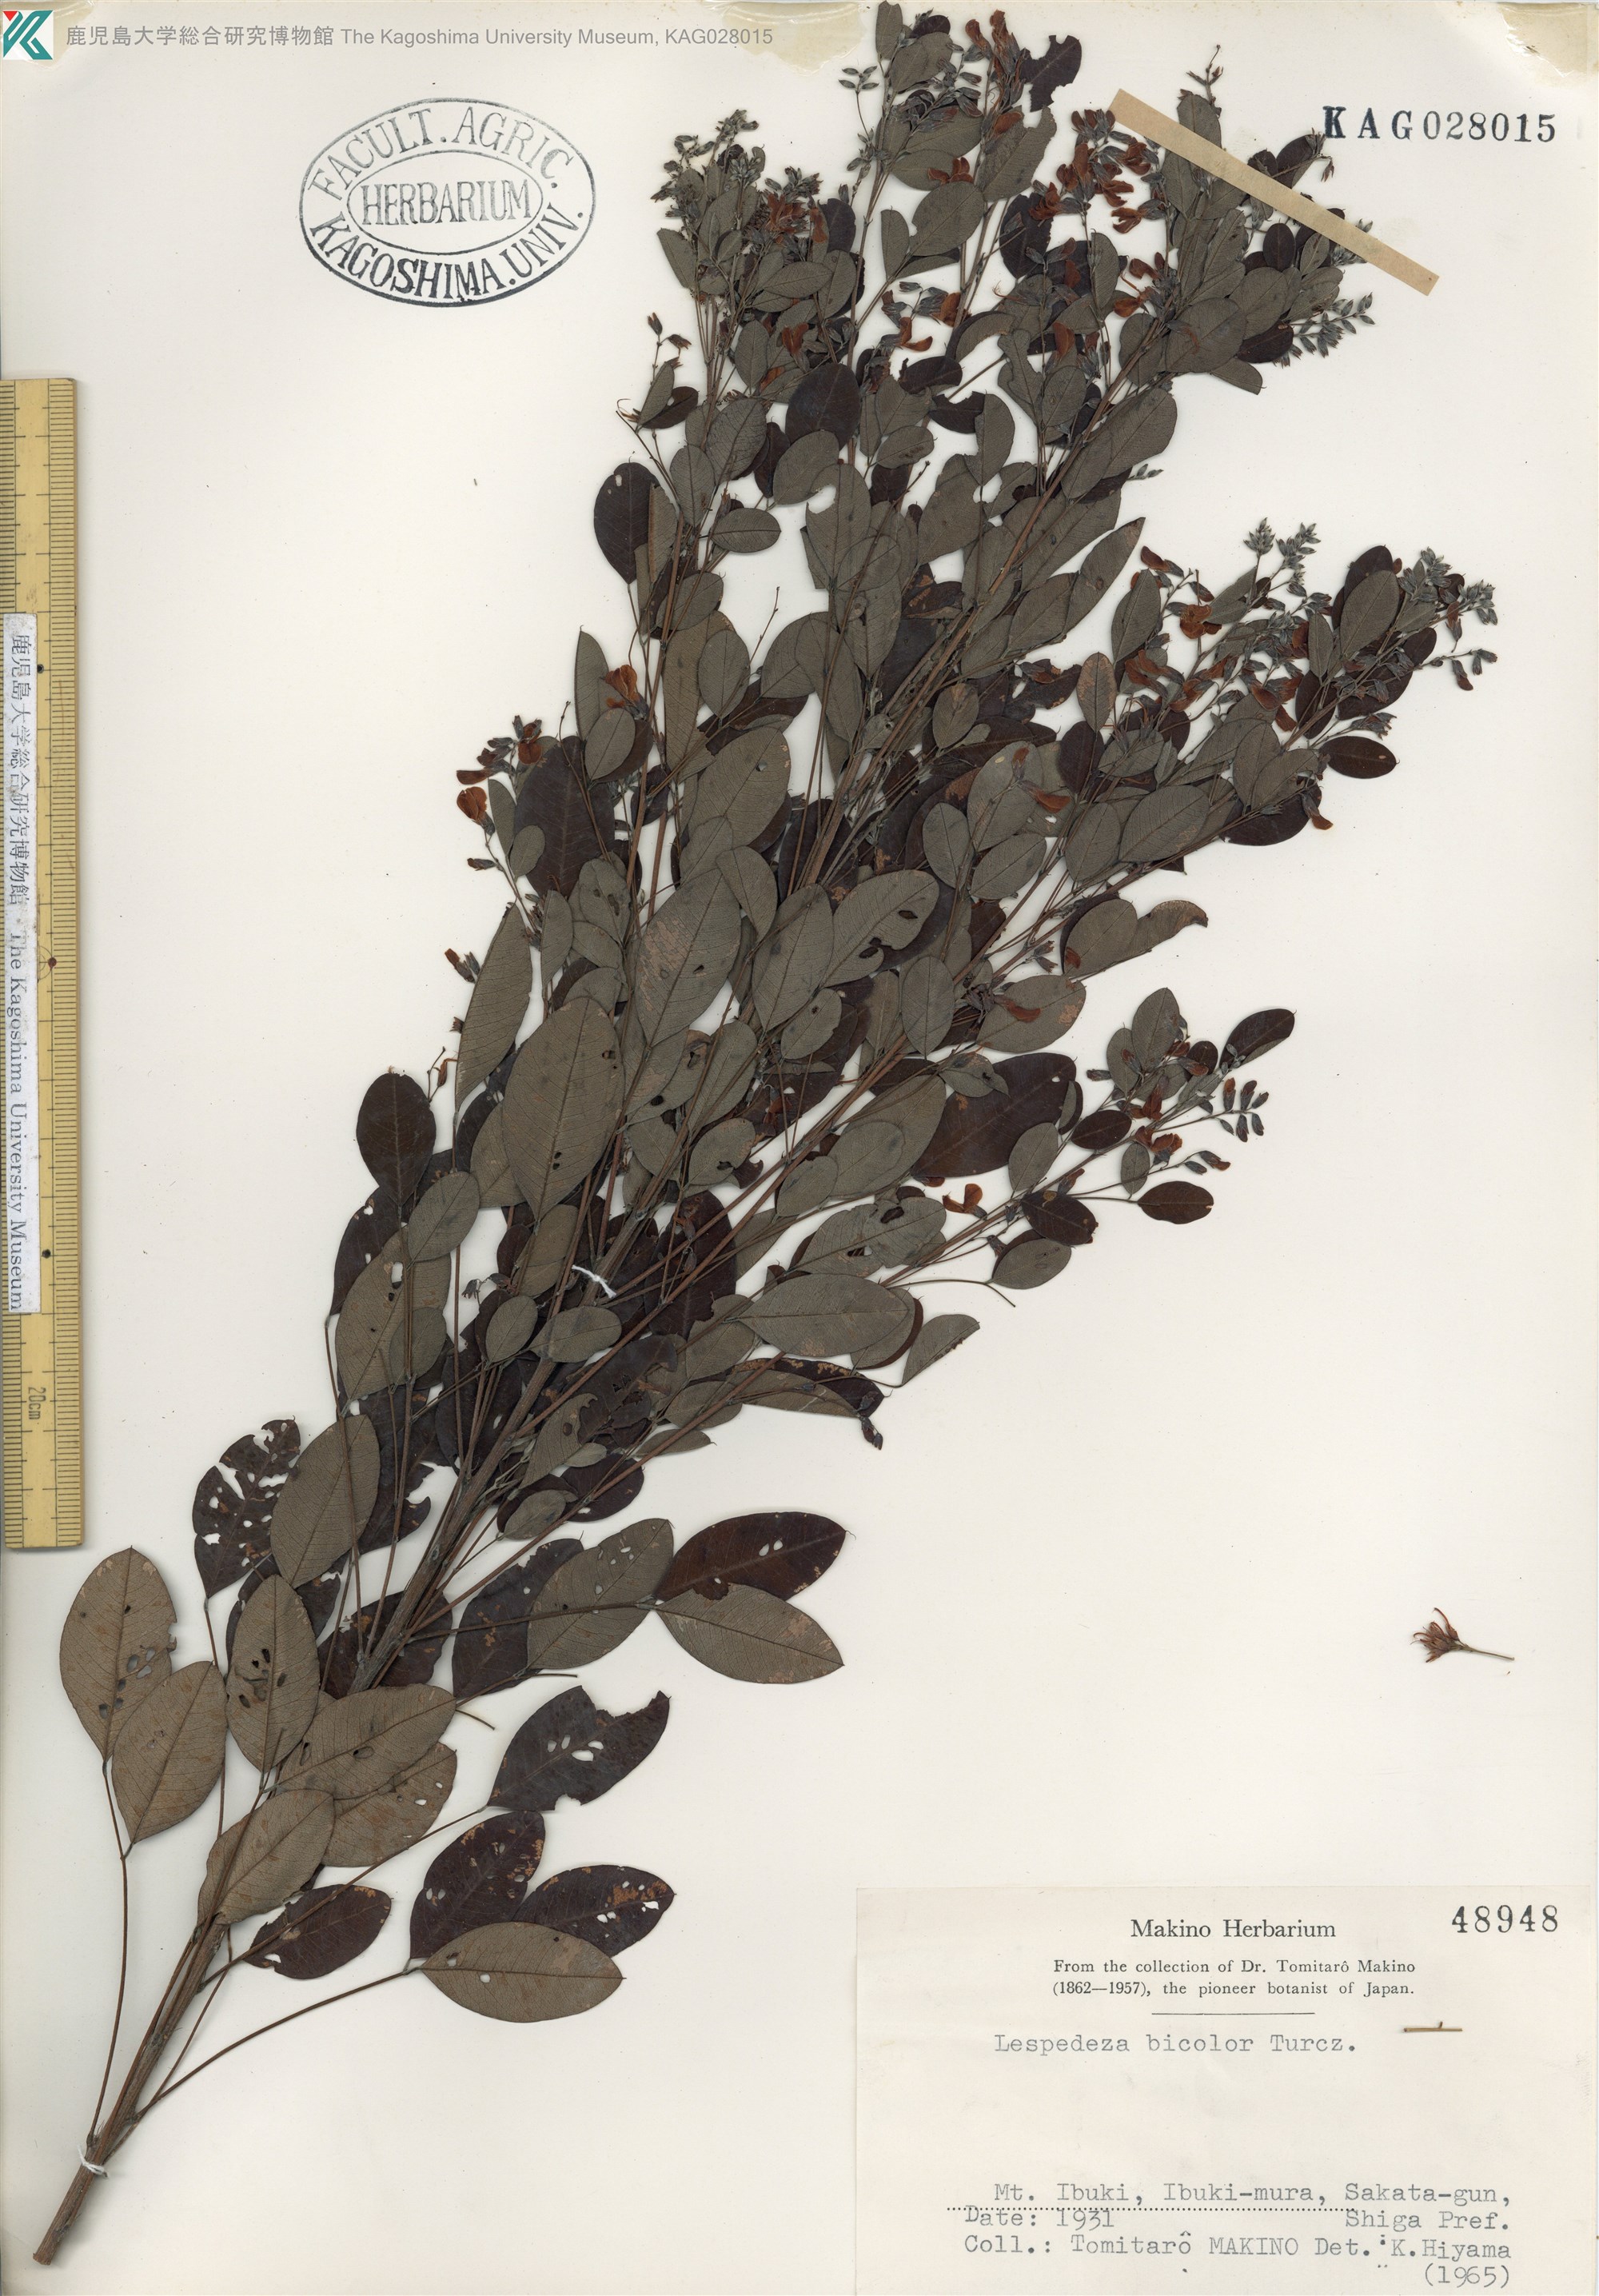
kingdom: Plantae
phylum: Tracheophyta
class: Magnoliopsida
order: Fabales
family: Fabaceae
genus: Lespedeza
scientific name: Lespedeza bicolor
